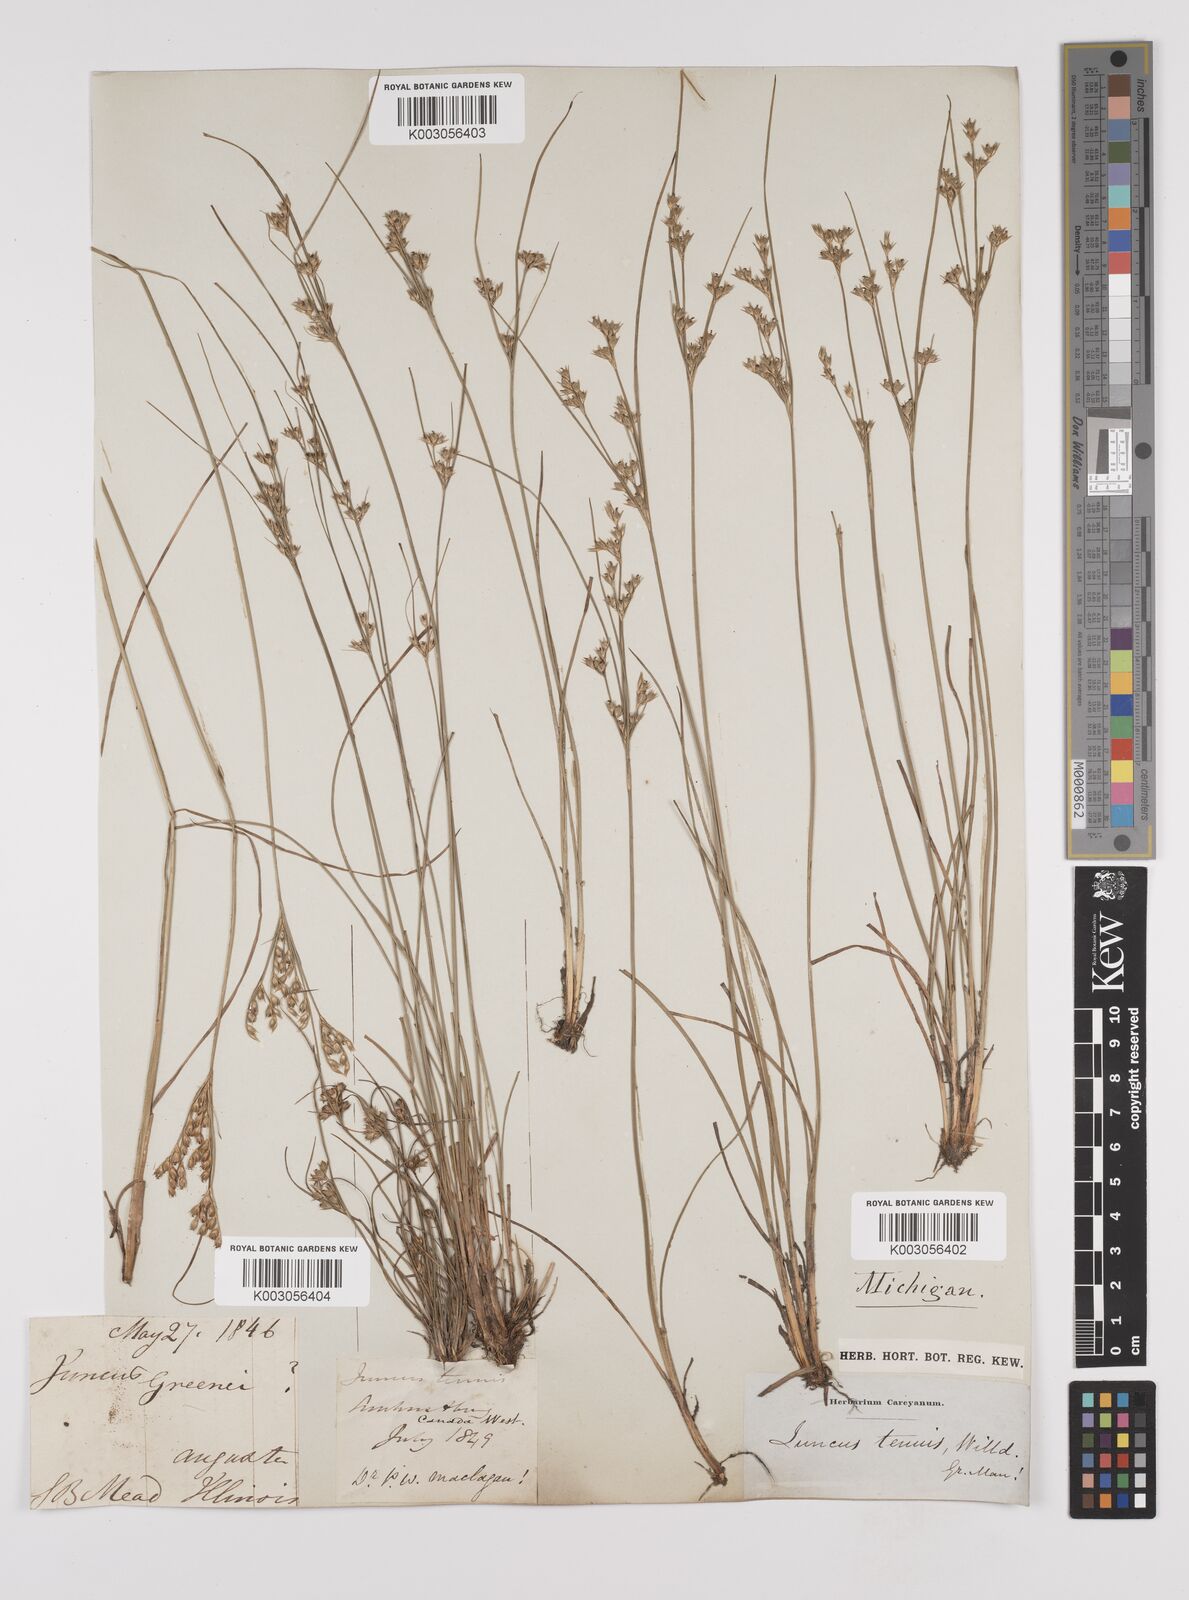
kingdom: Plantae
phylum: Tracheophyta
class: Liliopsida
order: Poales
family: Juncaceae
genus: Juncus
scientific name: Juncus tenuis
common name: Slender rush
